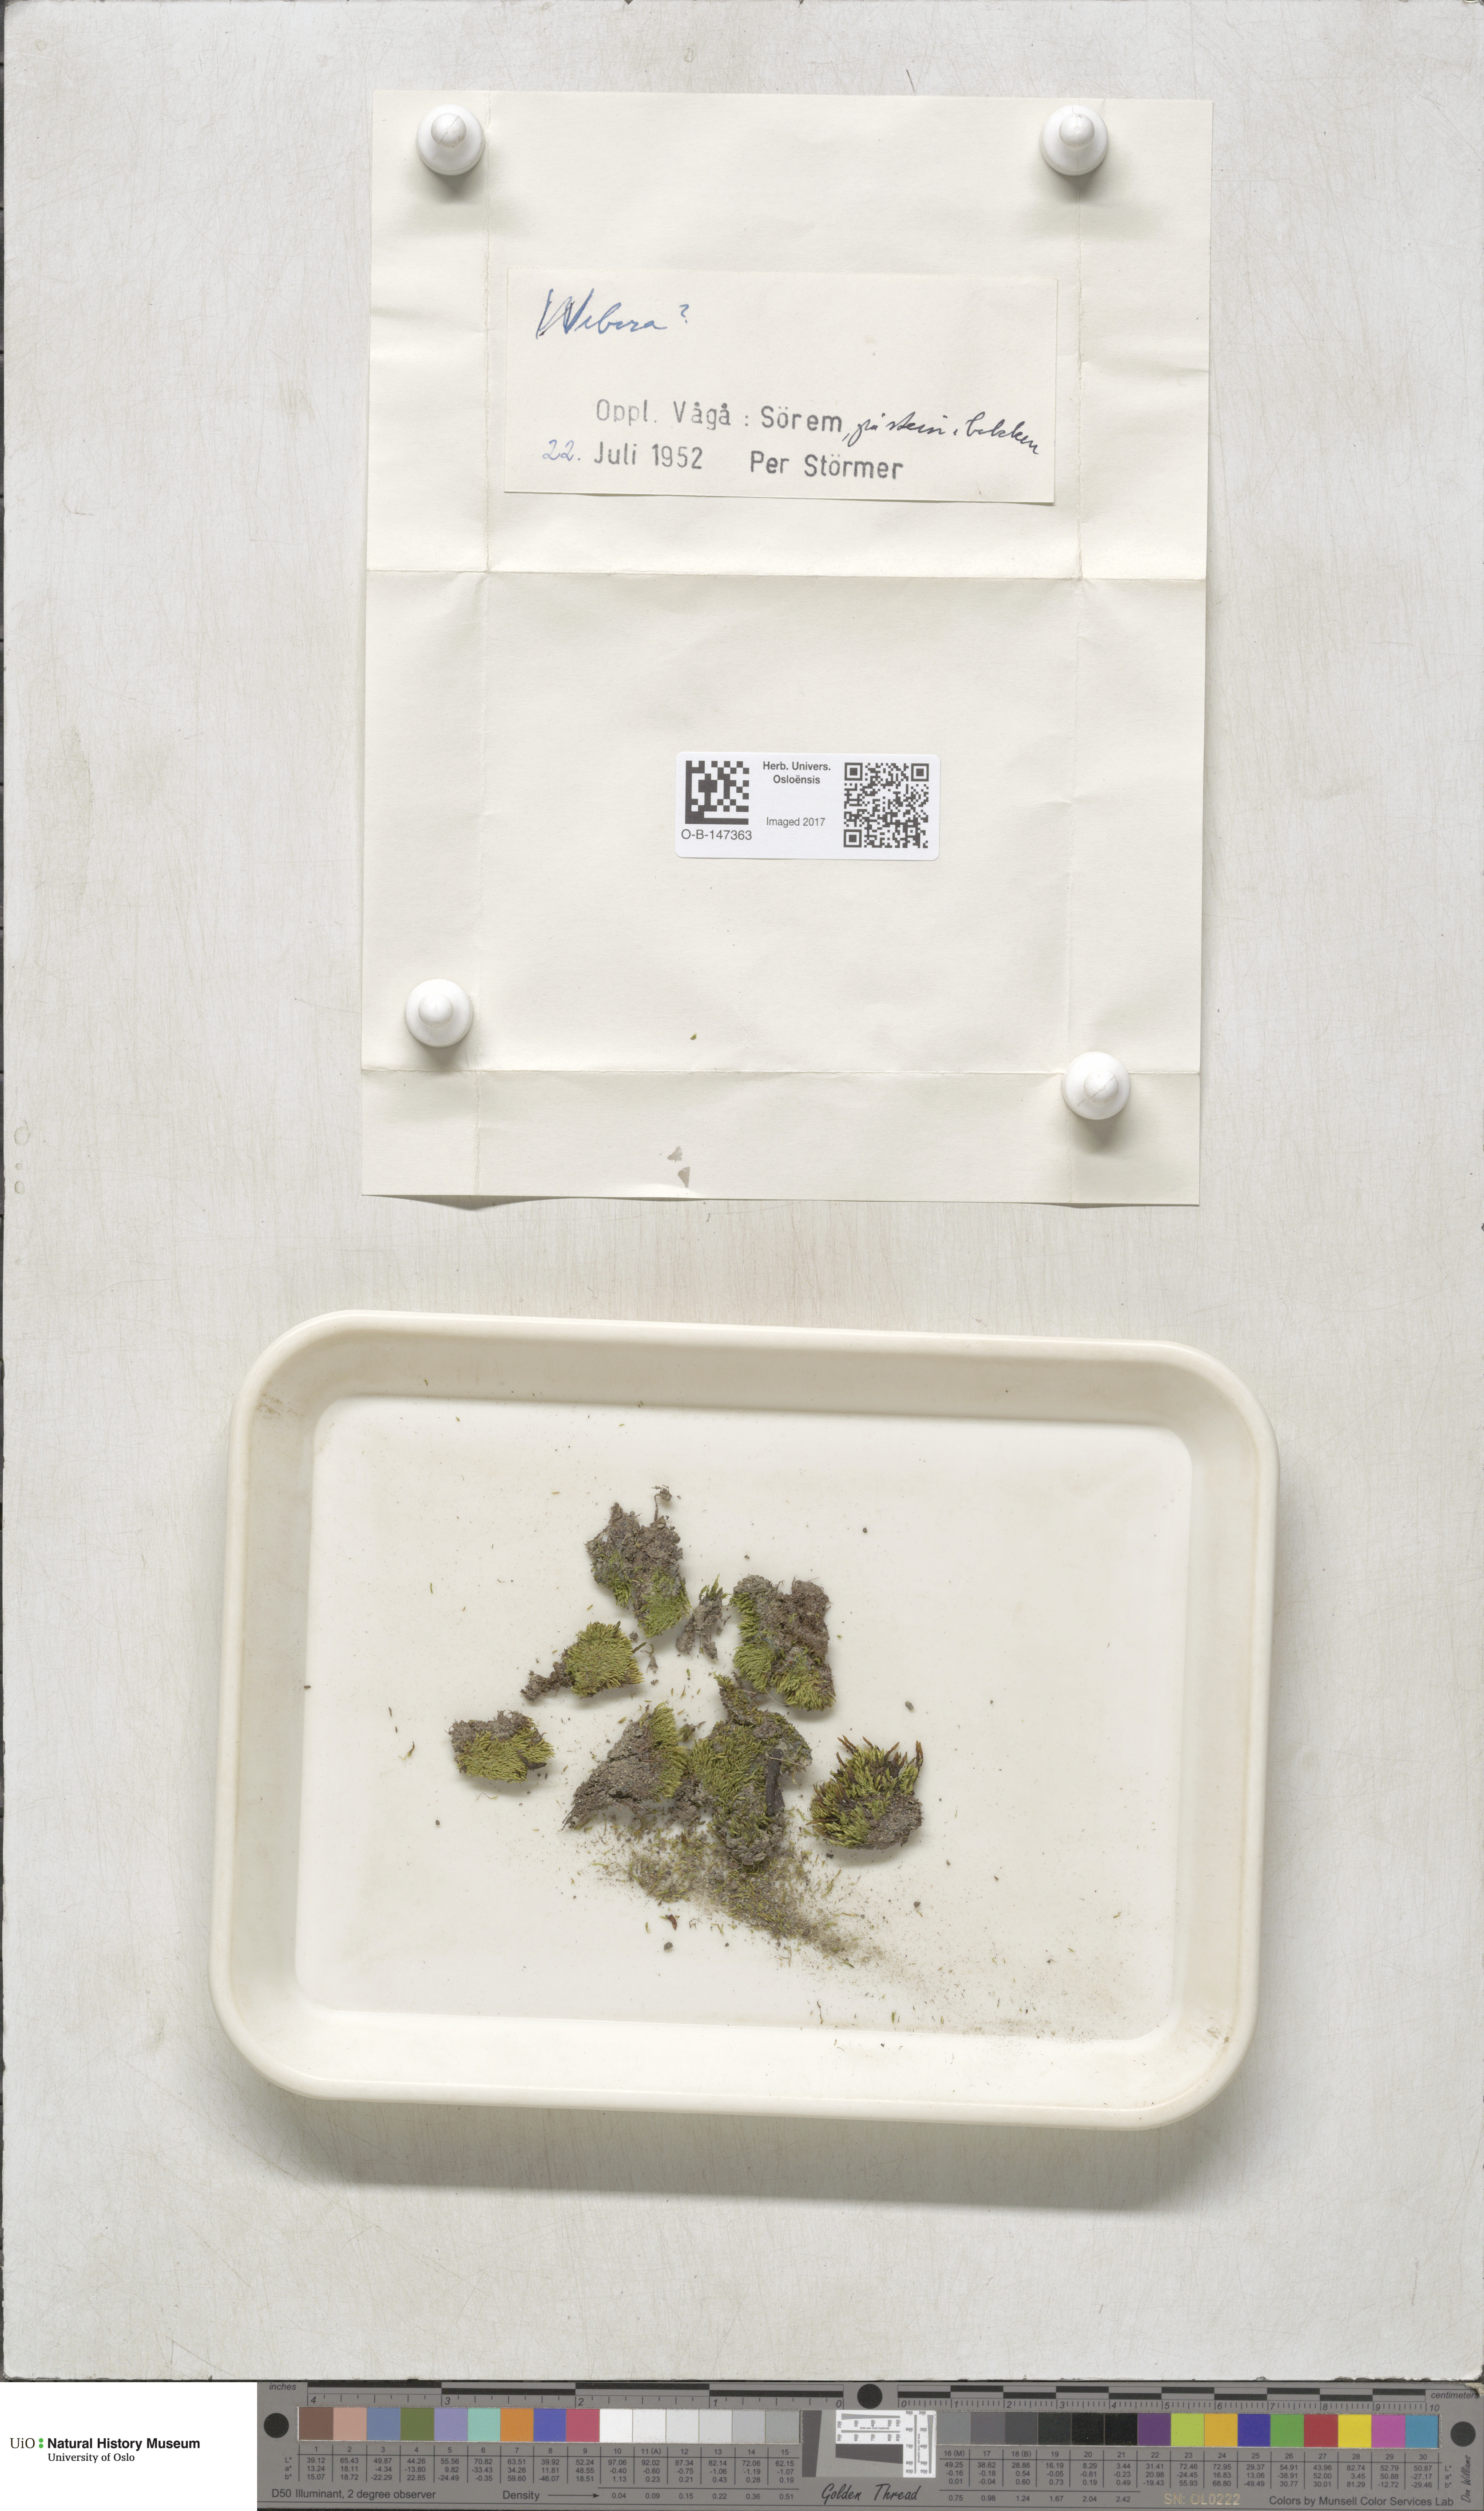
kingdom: Plantae
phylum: Bryophyta
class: Bryopsida
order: Bryales
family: Mniaceae
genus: Pohlia
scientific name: Pohlia
